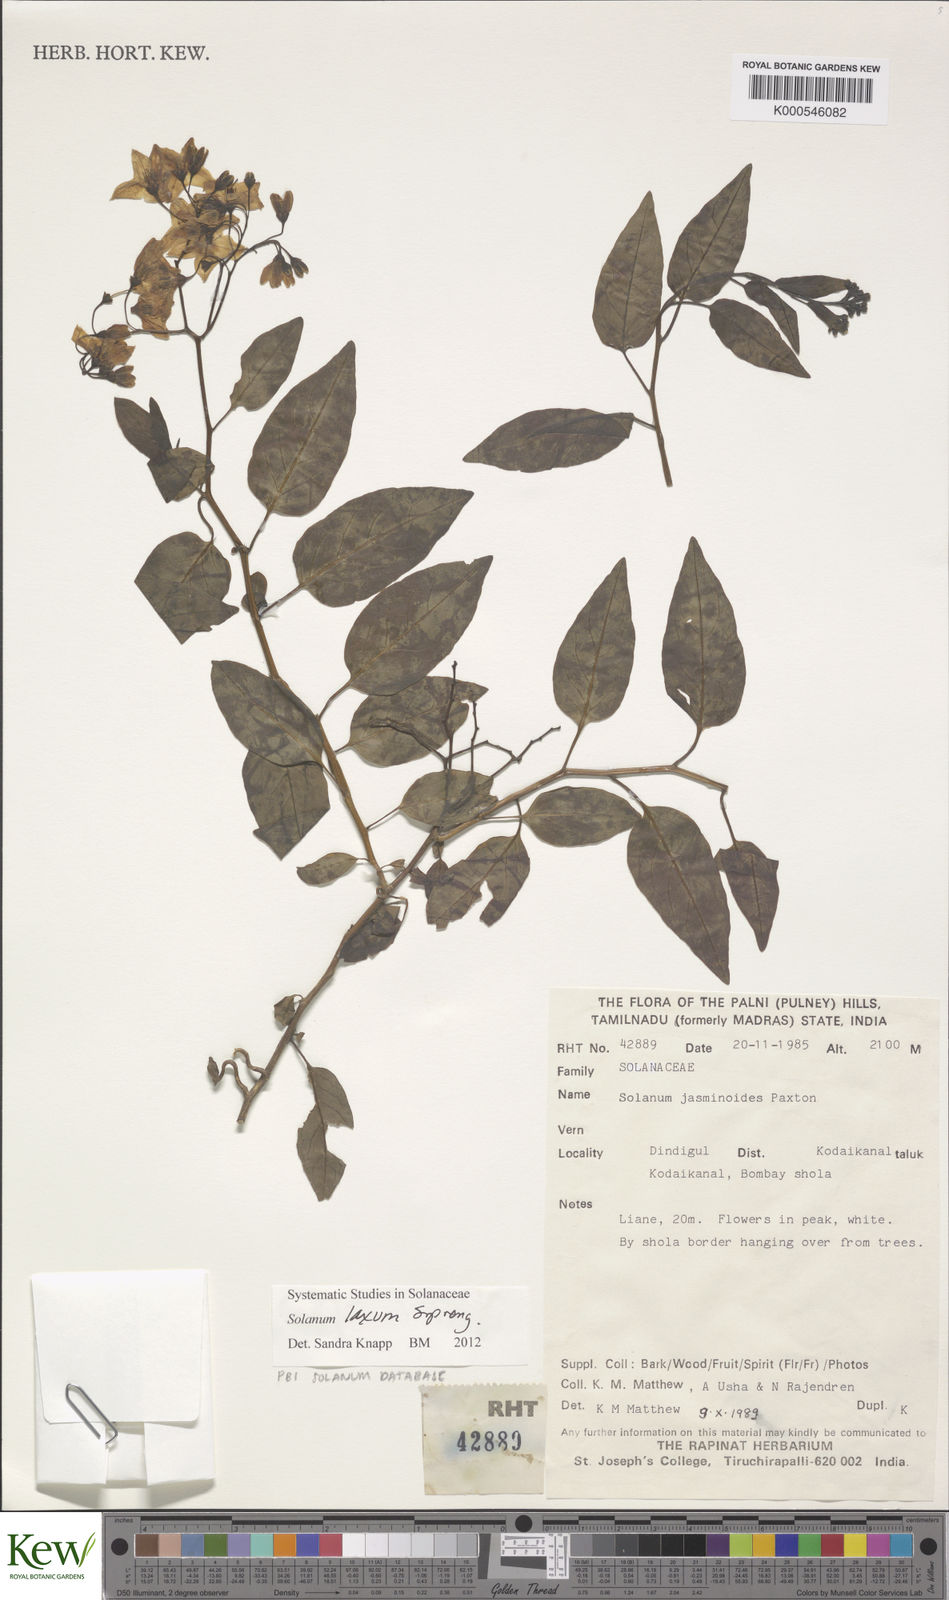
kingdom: Plantae
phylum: Tracheophyta
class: Magnoliopsida
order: Solanales
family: Solanaceae
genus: Solanum
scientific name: Solanum laxum
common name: Nightshade
